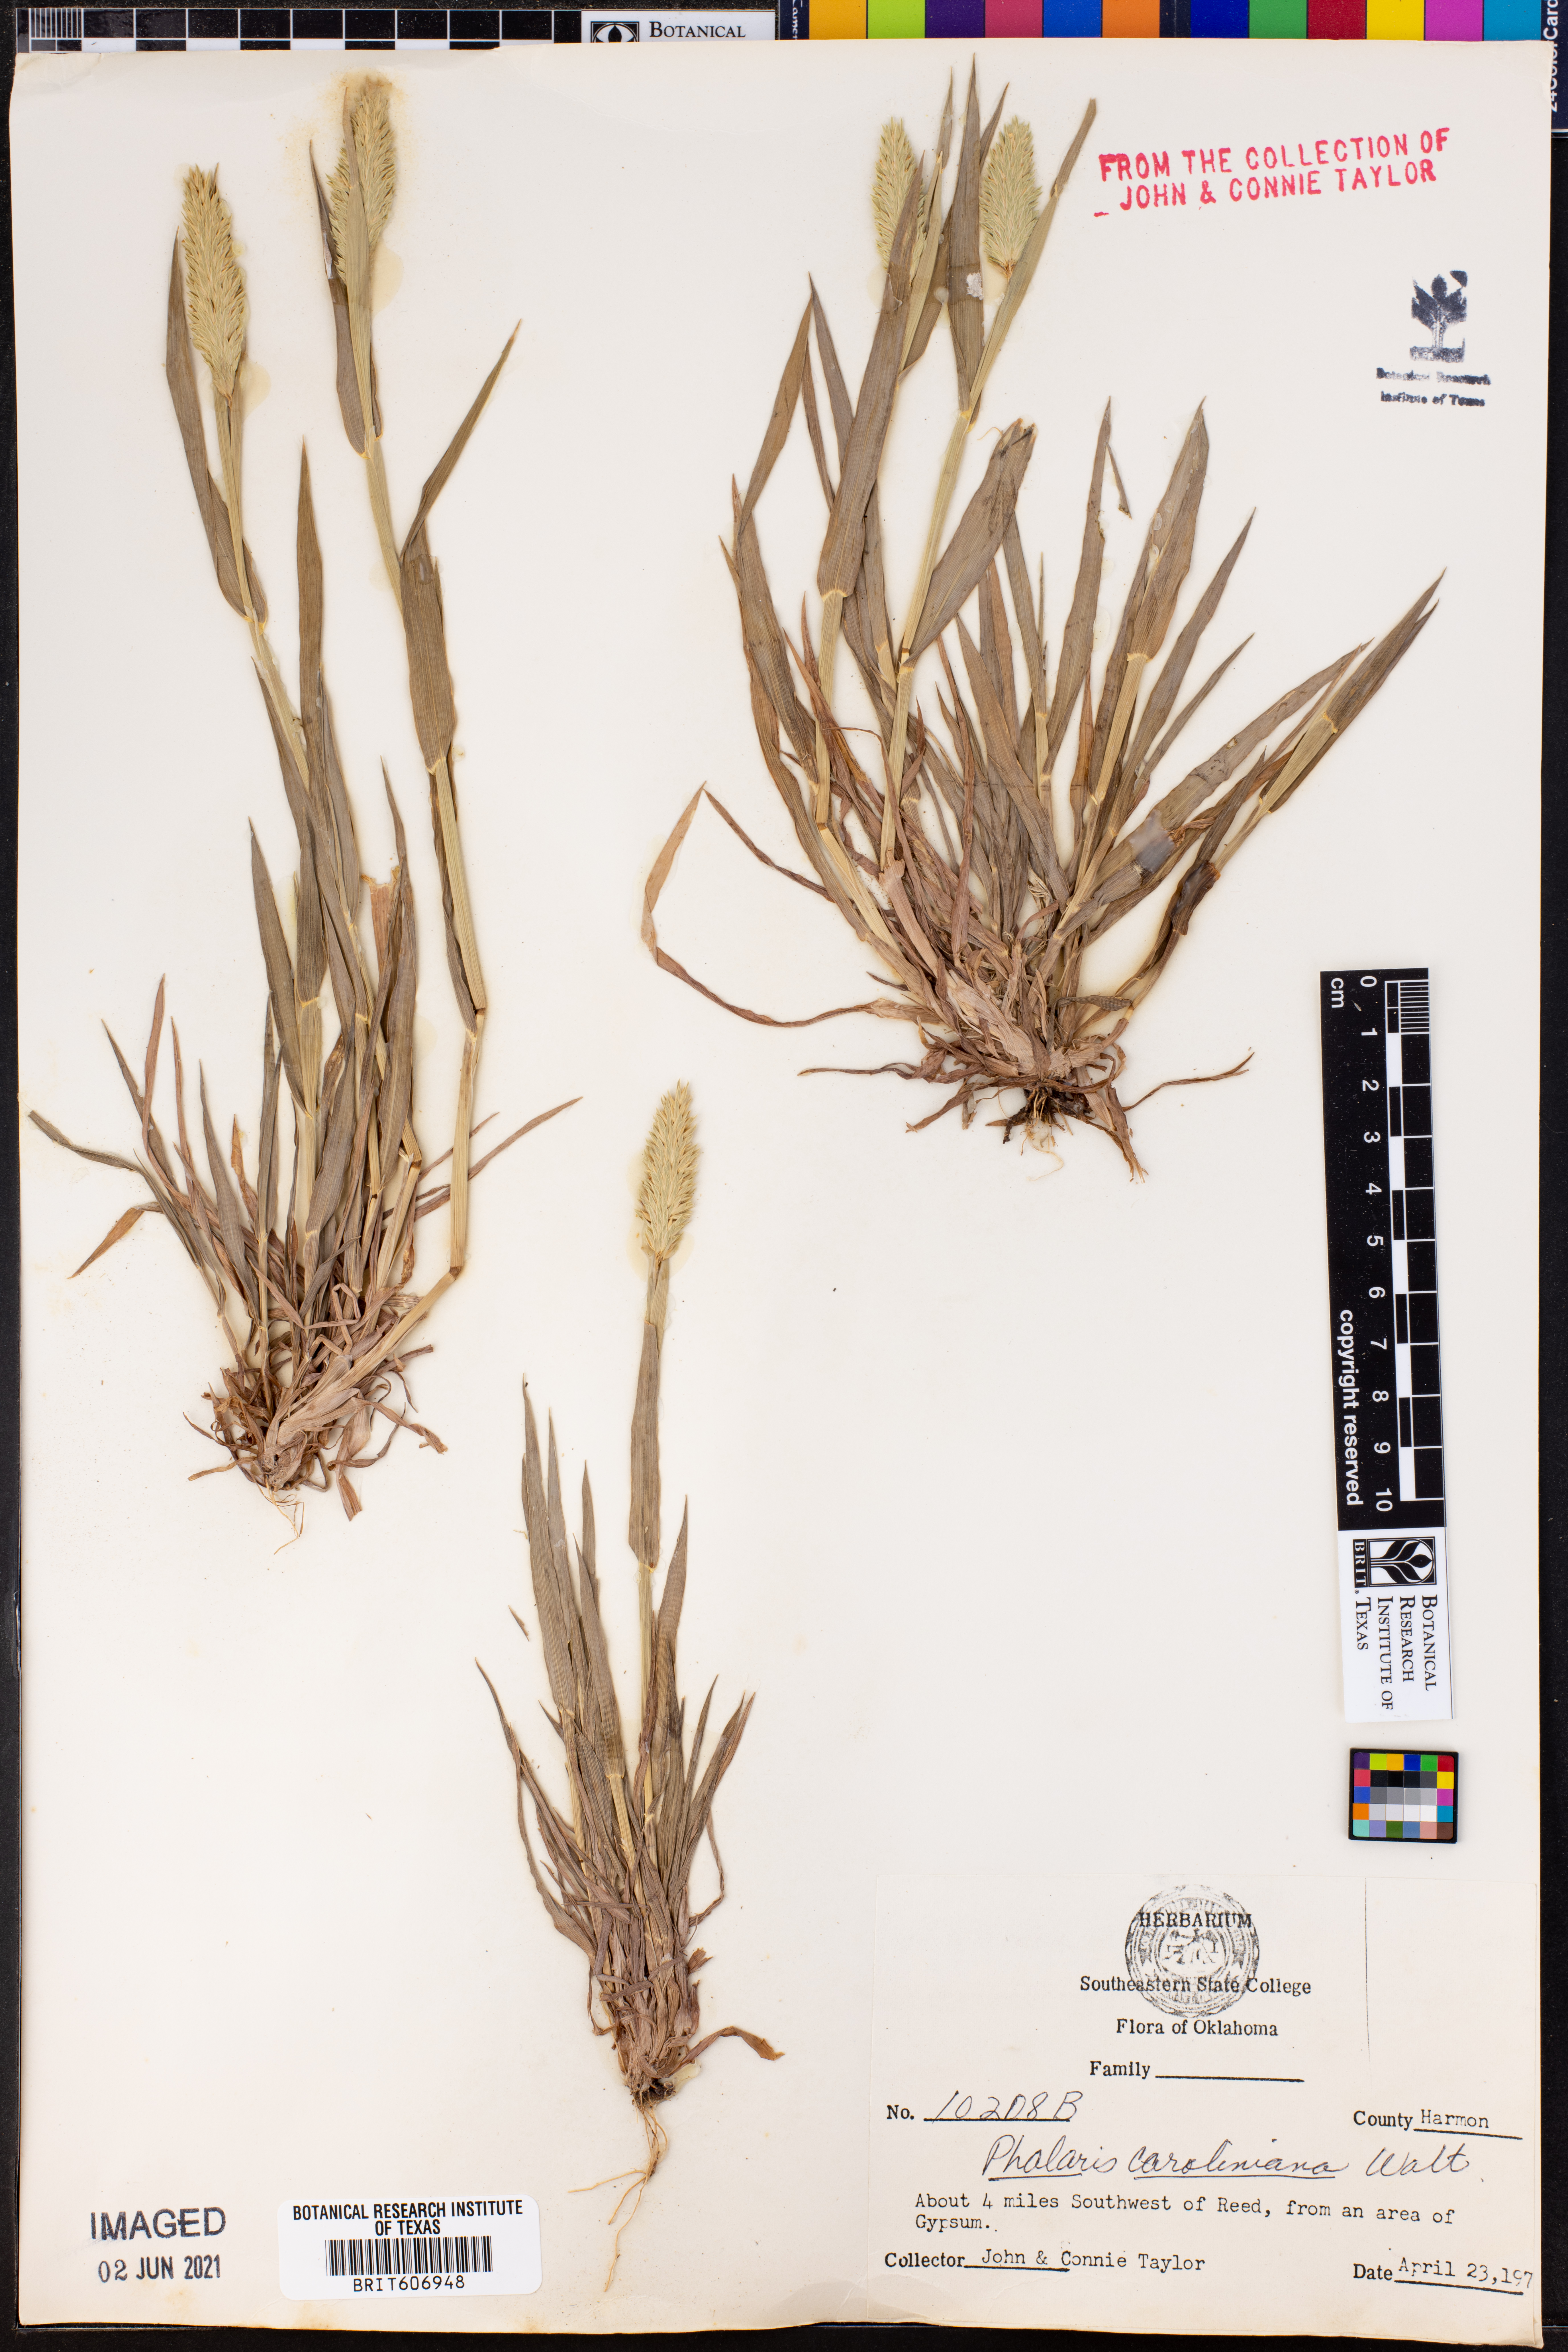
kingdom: Plantae
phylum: Tracheophyta
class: Liliopsida
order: Poales
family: Poaceae
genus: Phalaris
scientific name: Phalaris caroliniana
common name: May grass
